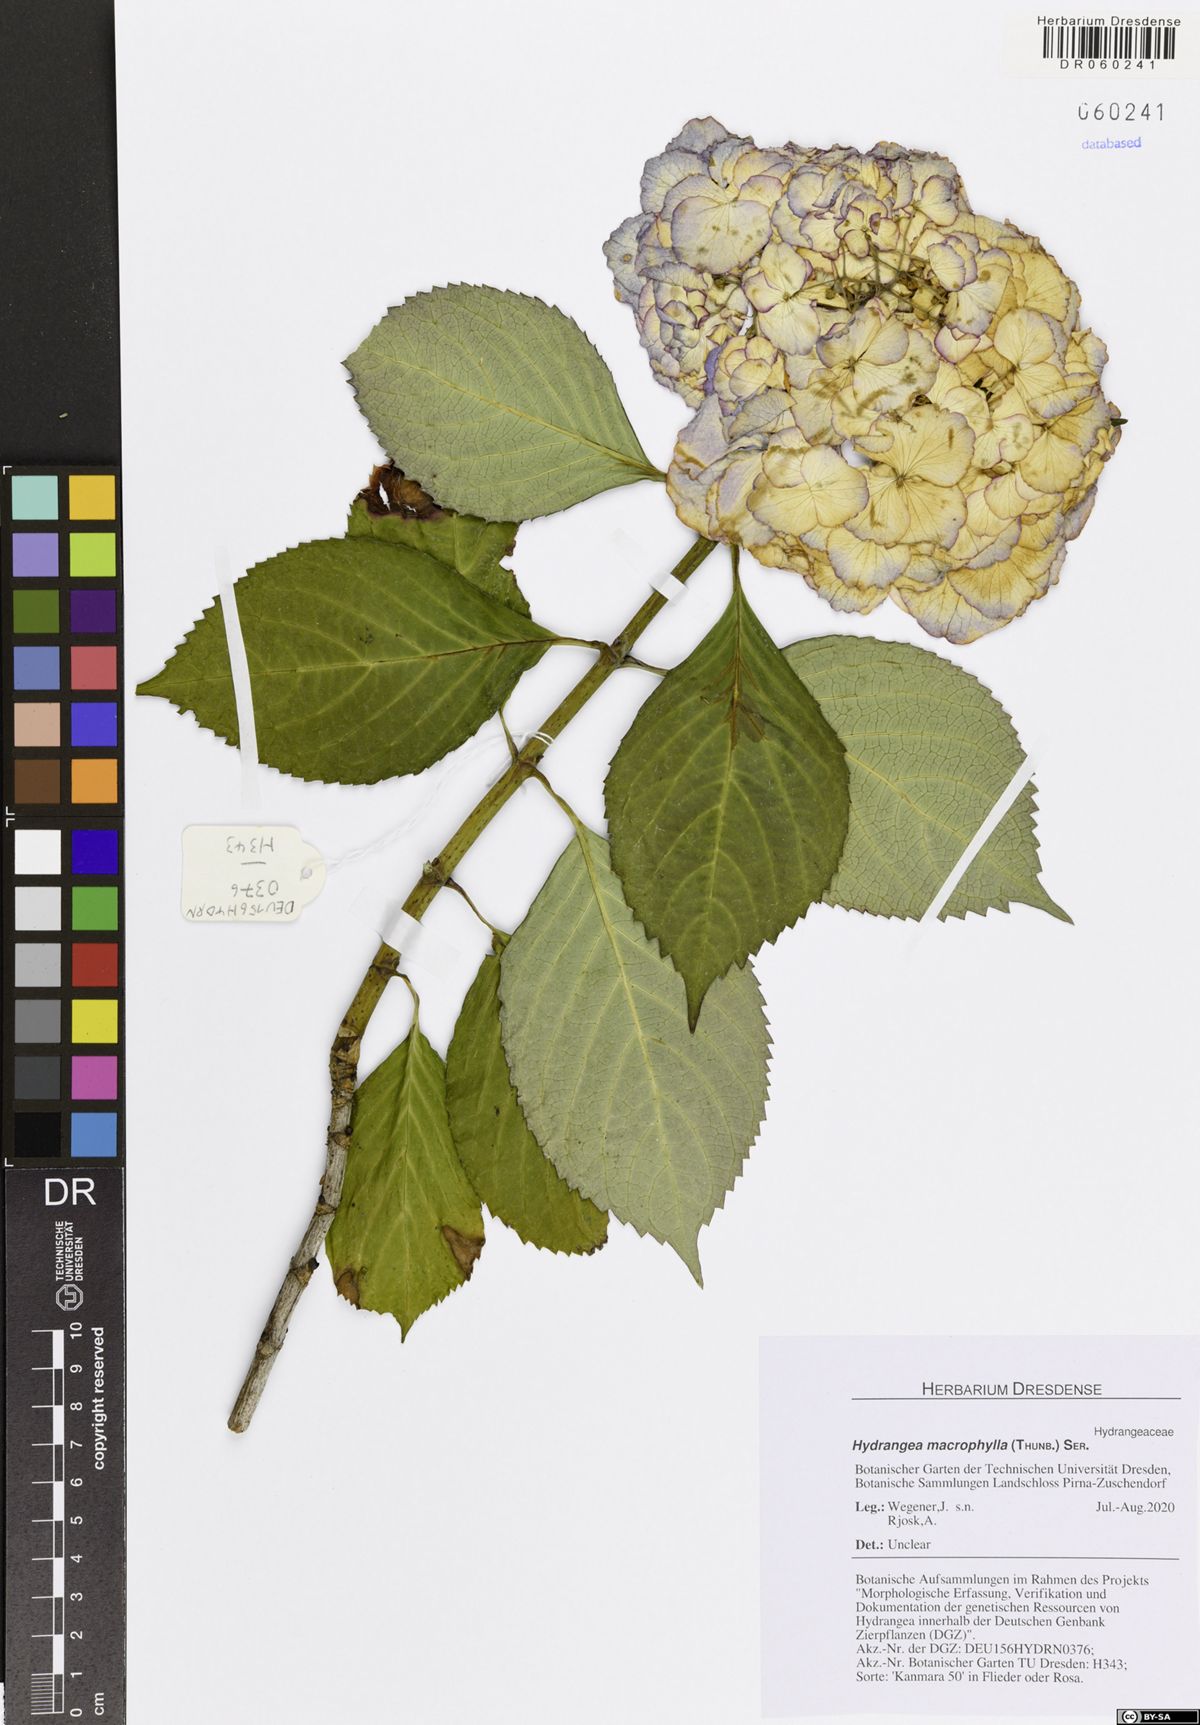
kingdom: Plantae
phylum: Tracheophyta
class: Magnoliopsida
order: Cornales
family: Hydrangeaceae
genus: Hydrangea
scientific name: Hydrangea macrophylla
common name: Hydrangea
